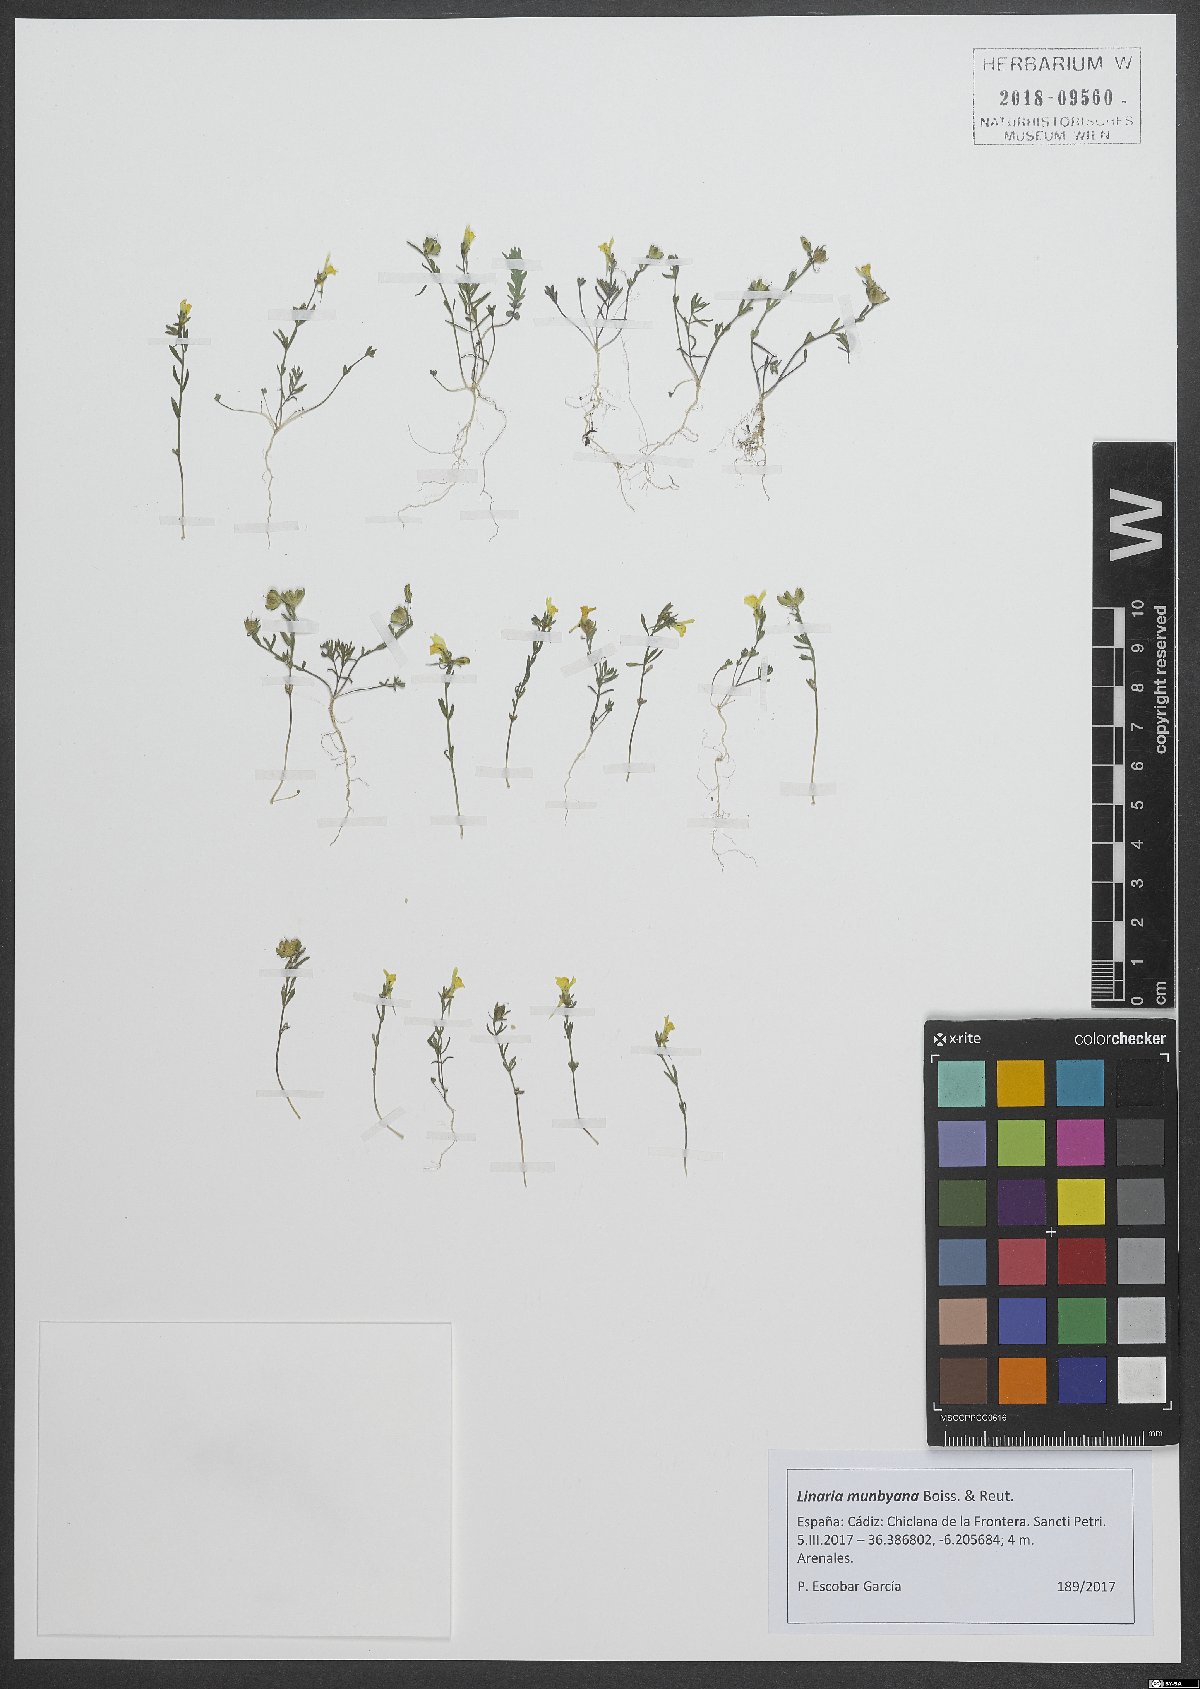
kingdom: Plantae
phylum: Tracheophyta
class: Magnoliopsida
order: Lamiales
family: Plantaginaceae
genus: Linaria
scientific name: Linaria munbyana
